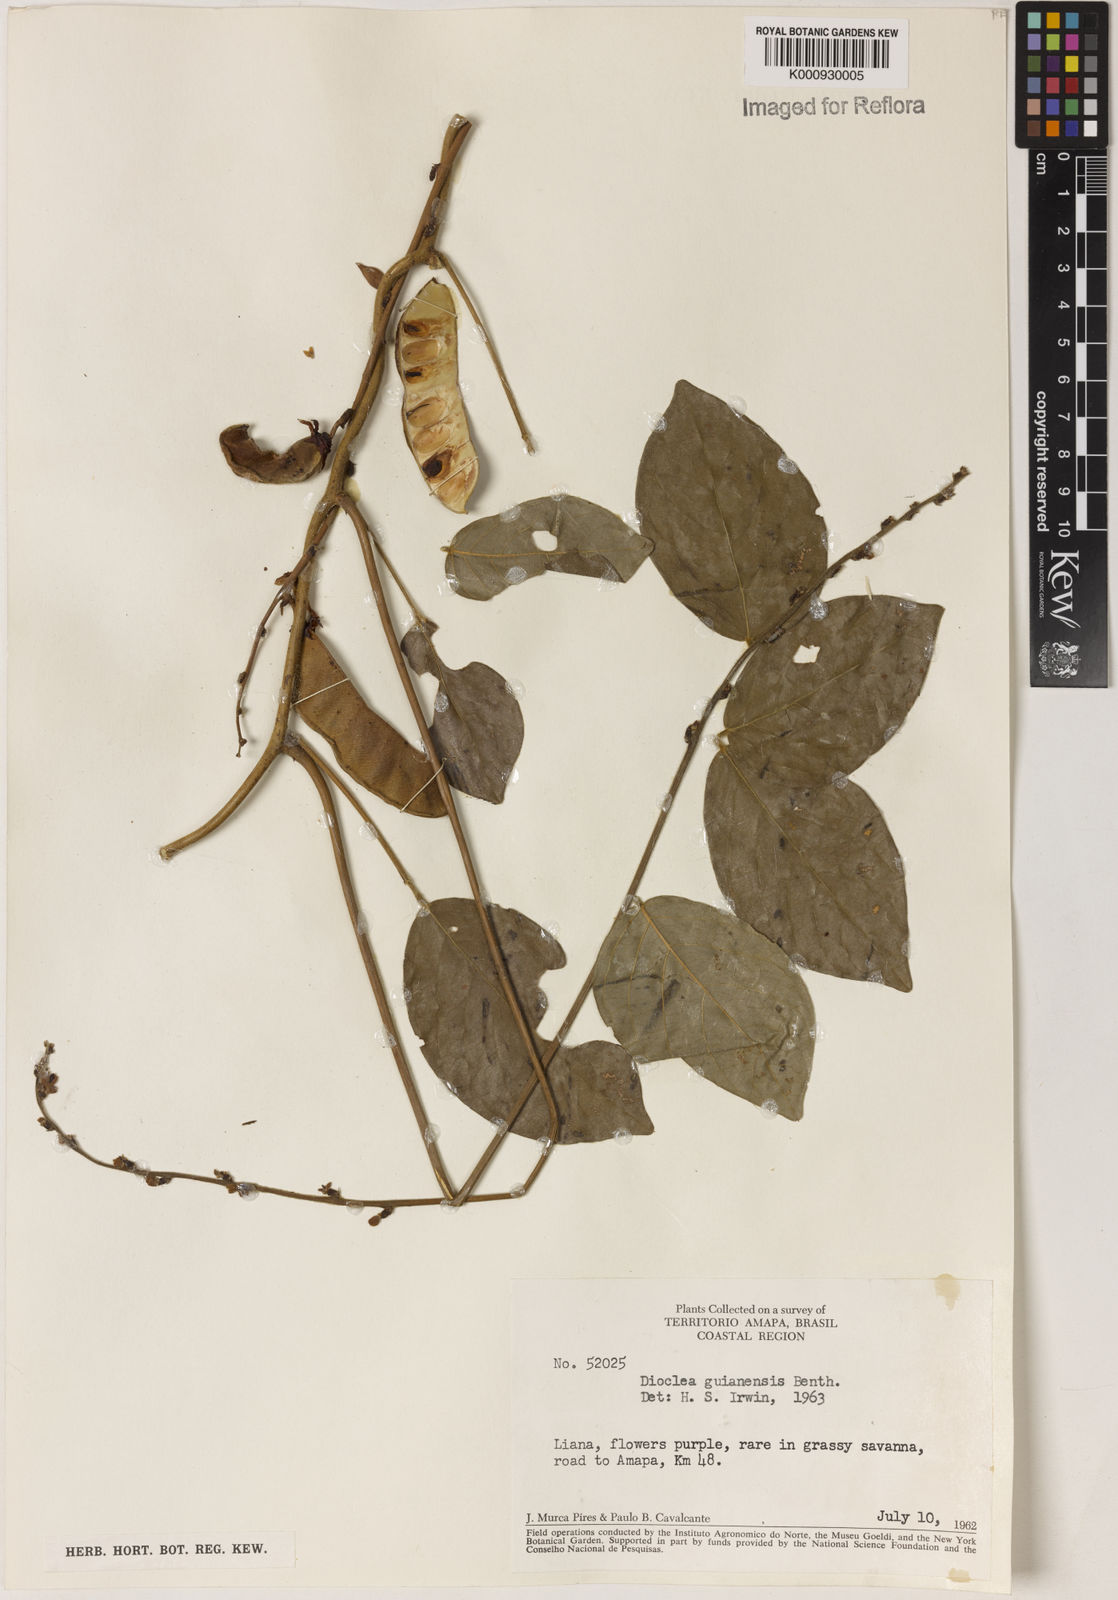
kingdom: Plantae
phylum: Tracheophyta
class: Magnoliopsida
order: Fabales
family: Fabaceae
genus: Dioclea
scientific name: Dioclea guianensis
